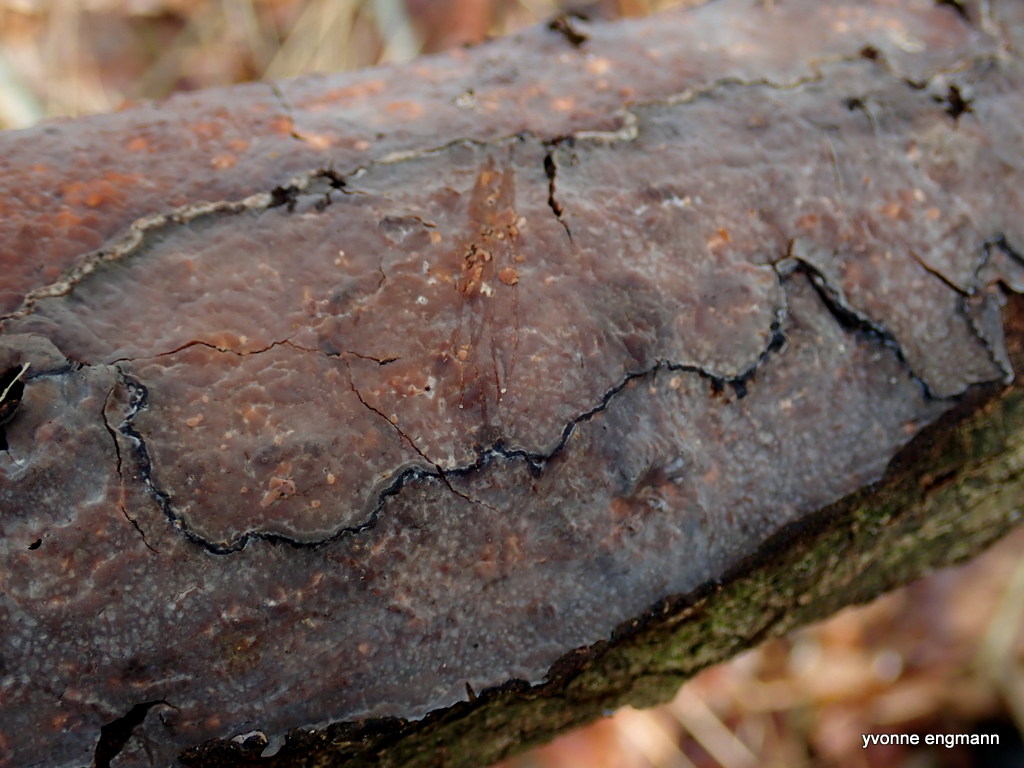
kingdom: Fungi
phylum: Basidiomycota
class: Agaricomycetes
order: Russulales
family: Peniophoraceae
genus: Peniophora
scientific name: Peniophora quercina
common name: ege-voksskind
